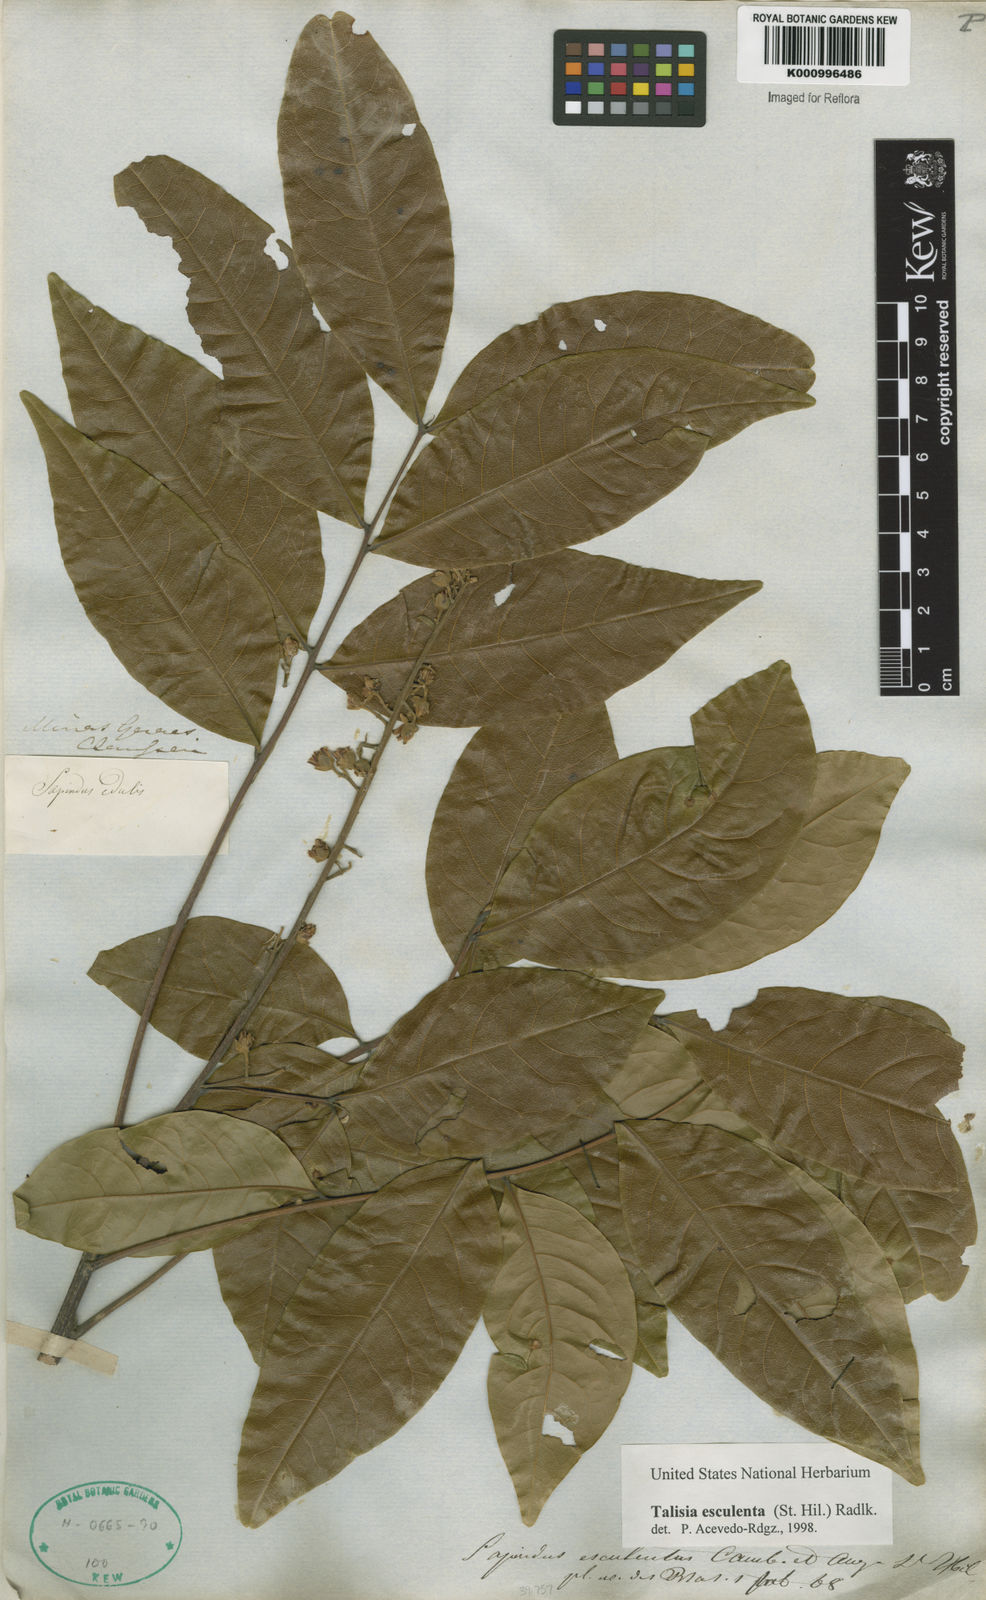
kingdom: Plantae
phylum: Tracheophyta
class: Magnoliopsida
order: Sapindales
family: Sapindaceae
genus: Talisia
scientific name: Talisia
